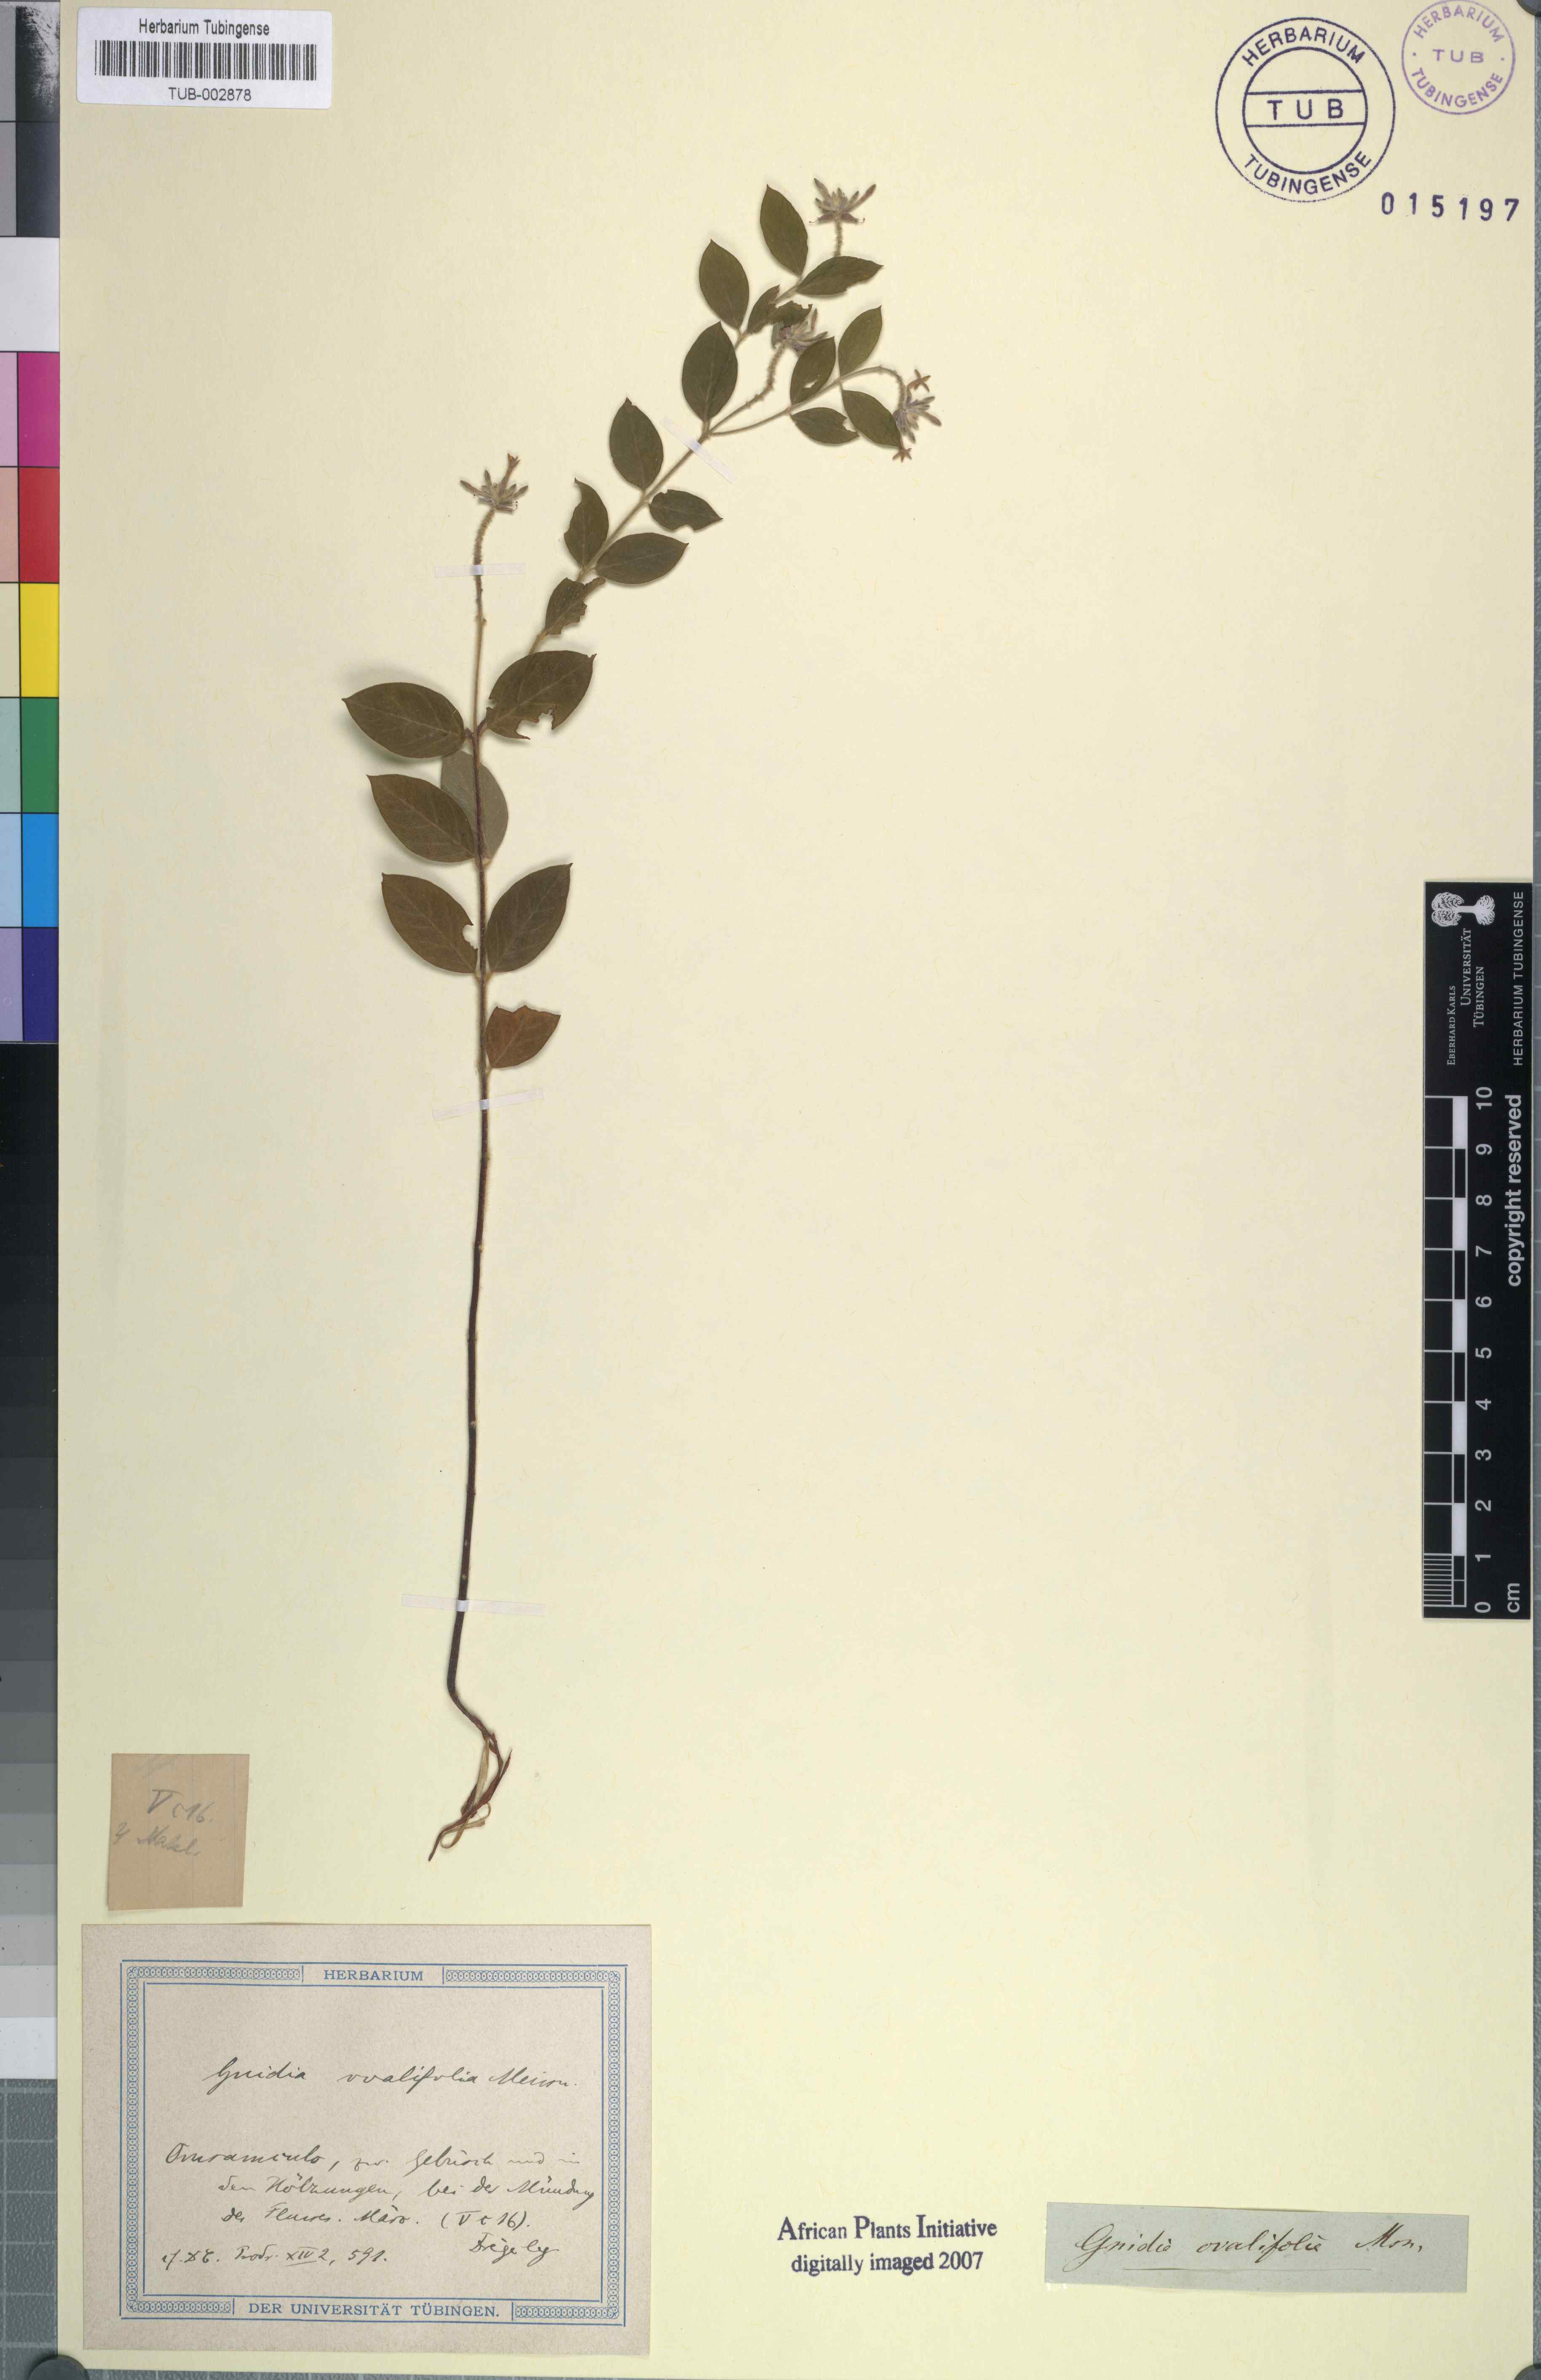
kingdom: Plantae
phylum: Tracheophyta
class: Magnoliopsida
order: Malvales
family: Thymelaeaceae
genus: Englerodaphne
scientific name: Englerodaphne ovalifolia
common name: Broad-leaved fibre-bush
